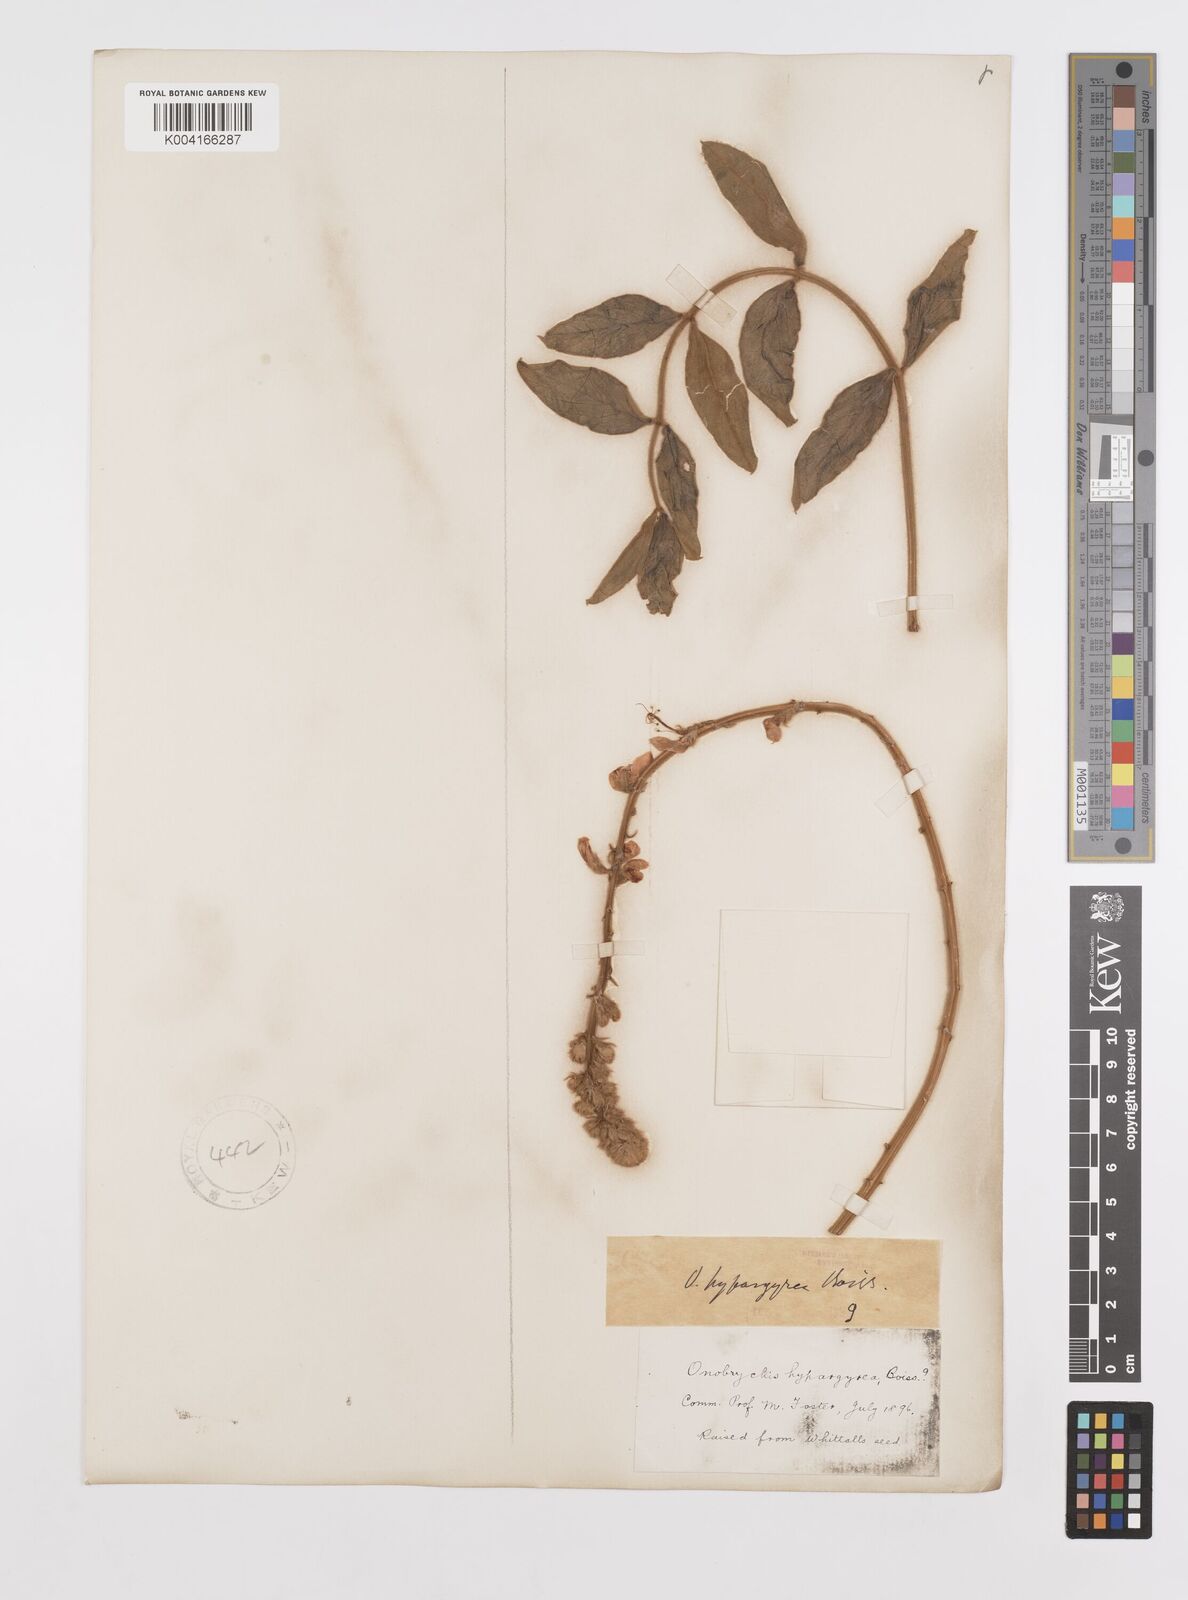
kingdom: Plantae
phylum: Tracheophyta
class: Magnoliopsida
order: Fabales
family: Fabaceae
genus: Onobrychis
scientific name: Onobrychis hypargyrea
